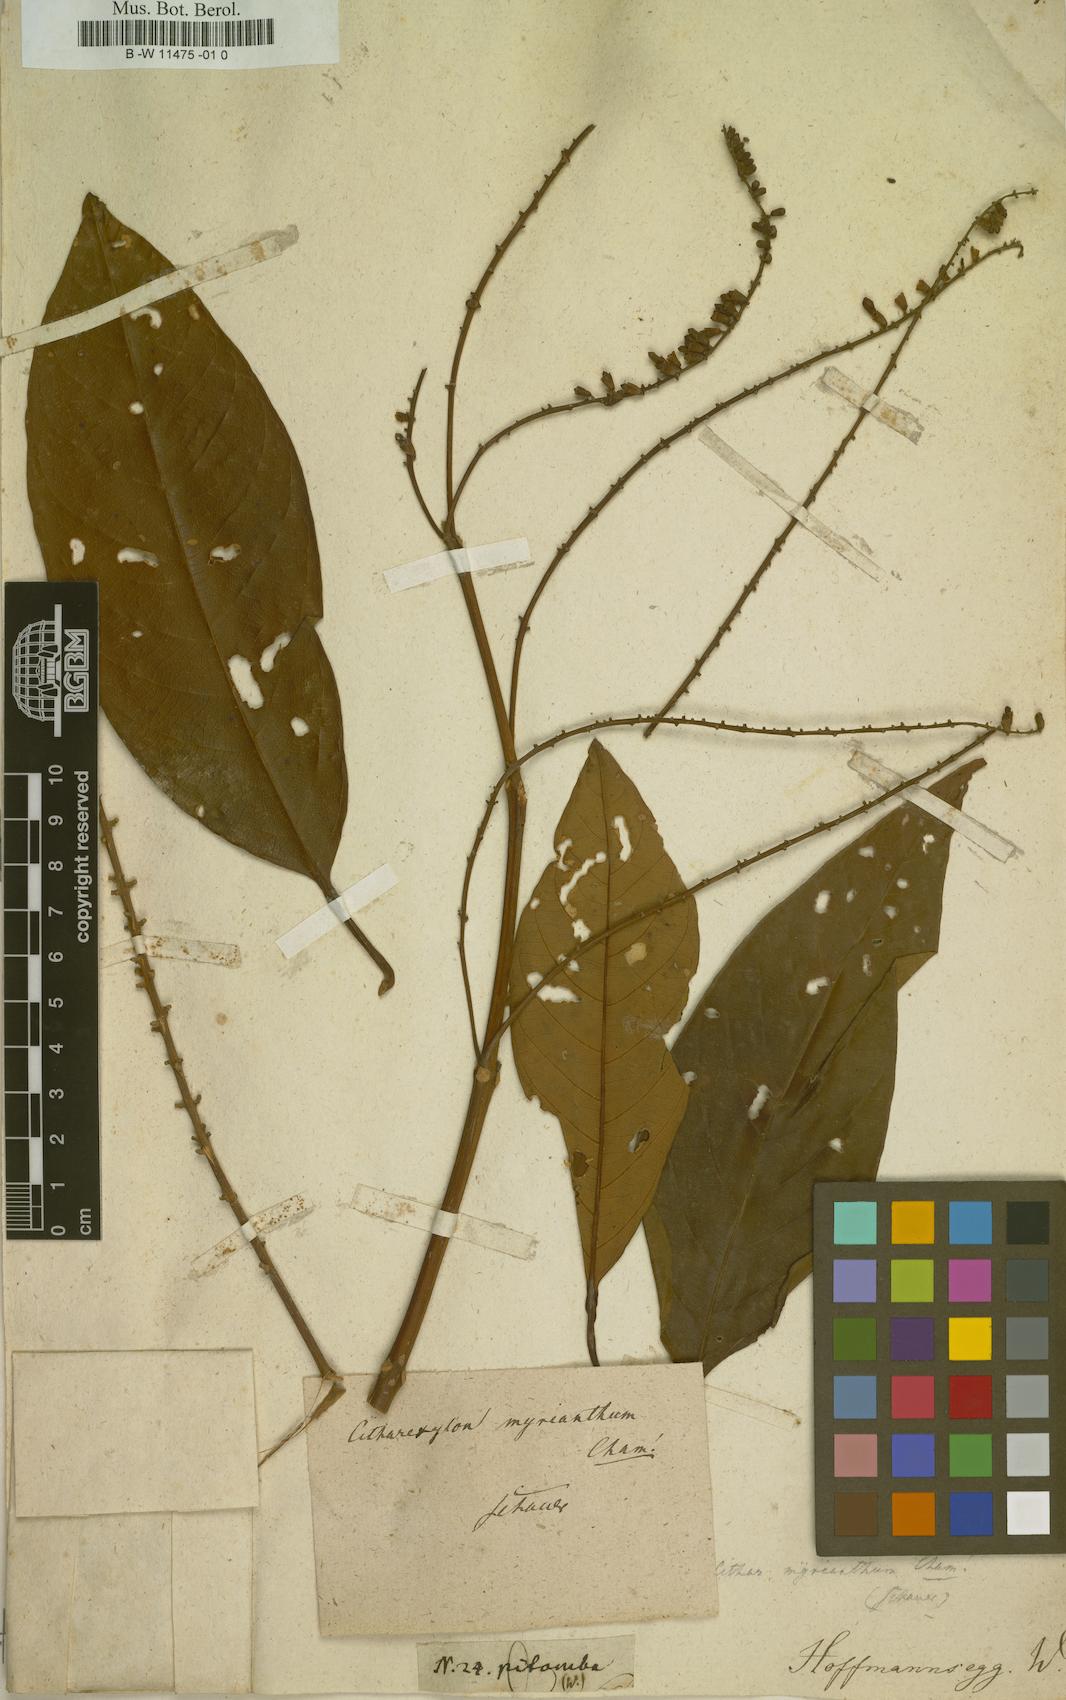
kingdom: Plantae
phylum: Tracheophyta
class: Magnoliopsida
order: Lamiales
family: Verbenaceae
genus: Citharexylum
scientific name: Citharexylum scabrum
